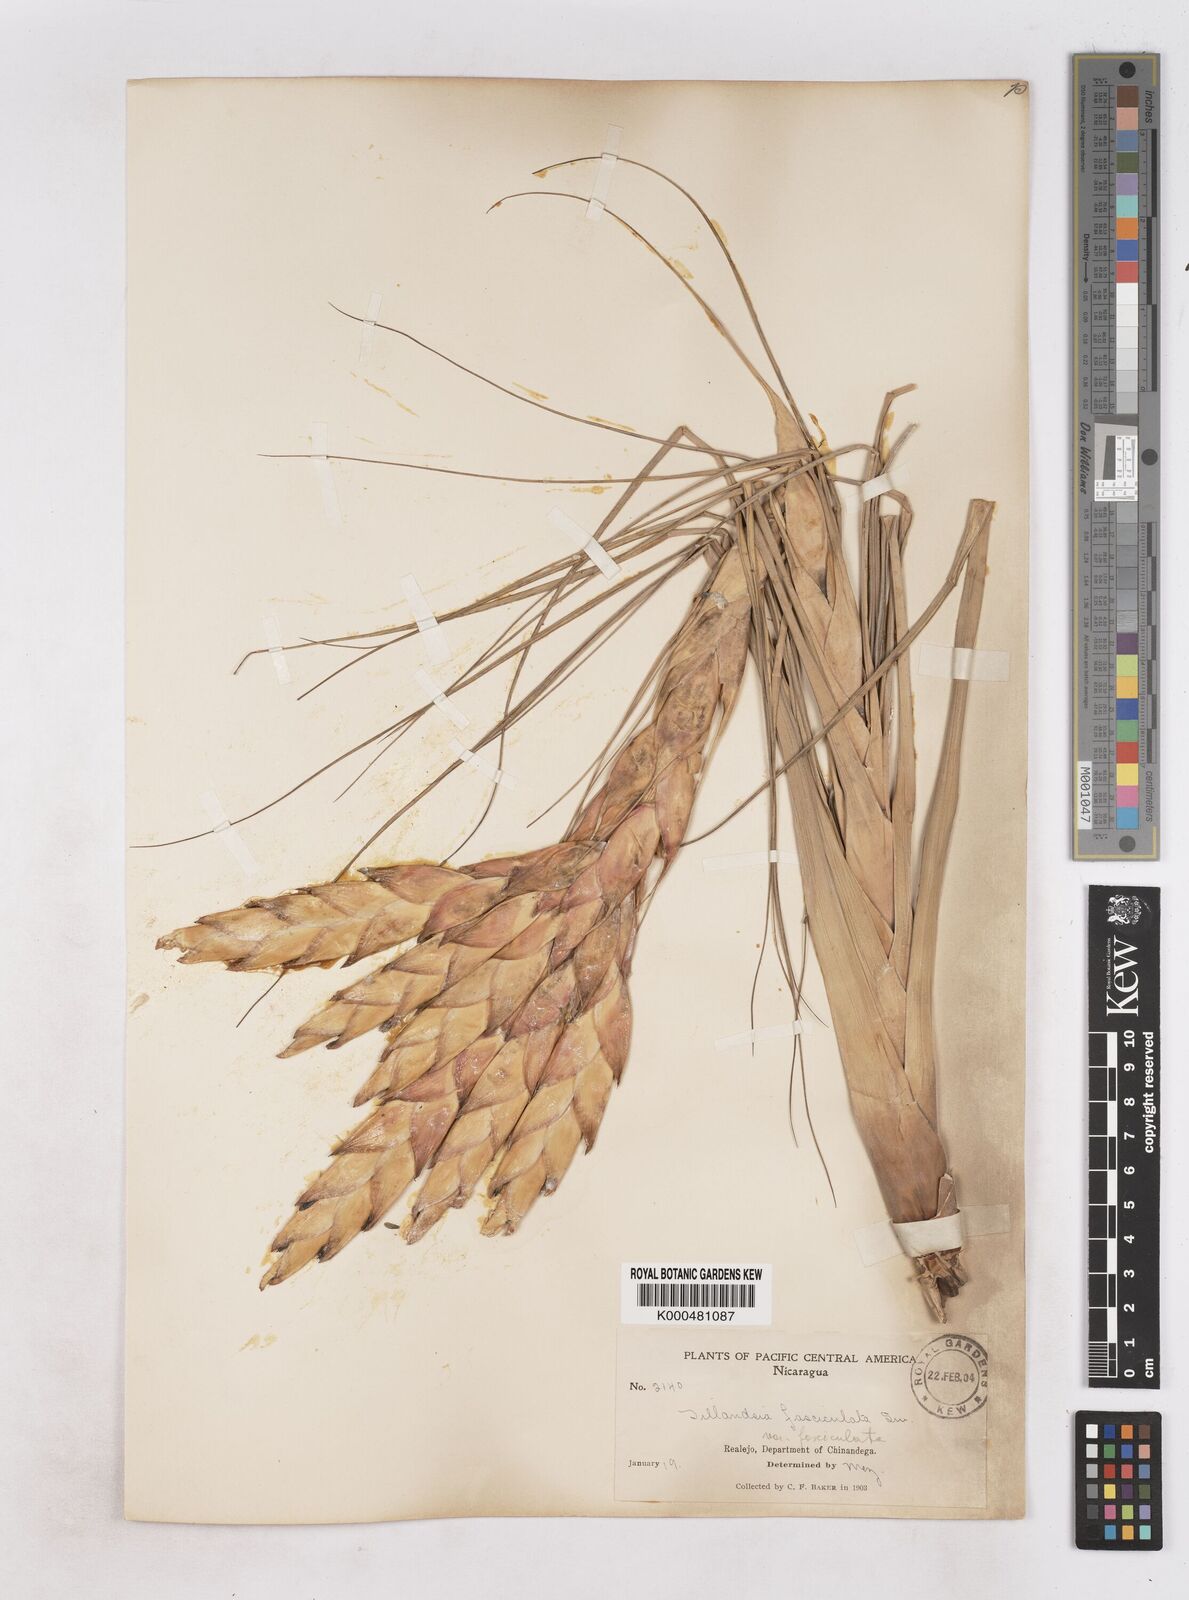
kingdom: Plantae
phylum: Tracheophyta
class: Liliopsida
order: Poales
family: Bromeliaceae
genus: Tillandsia
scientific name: Tillandsia fasciculata
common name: Giant airplant
